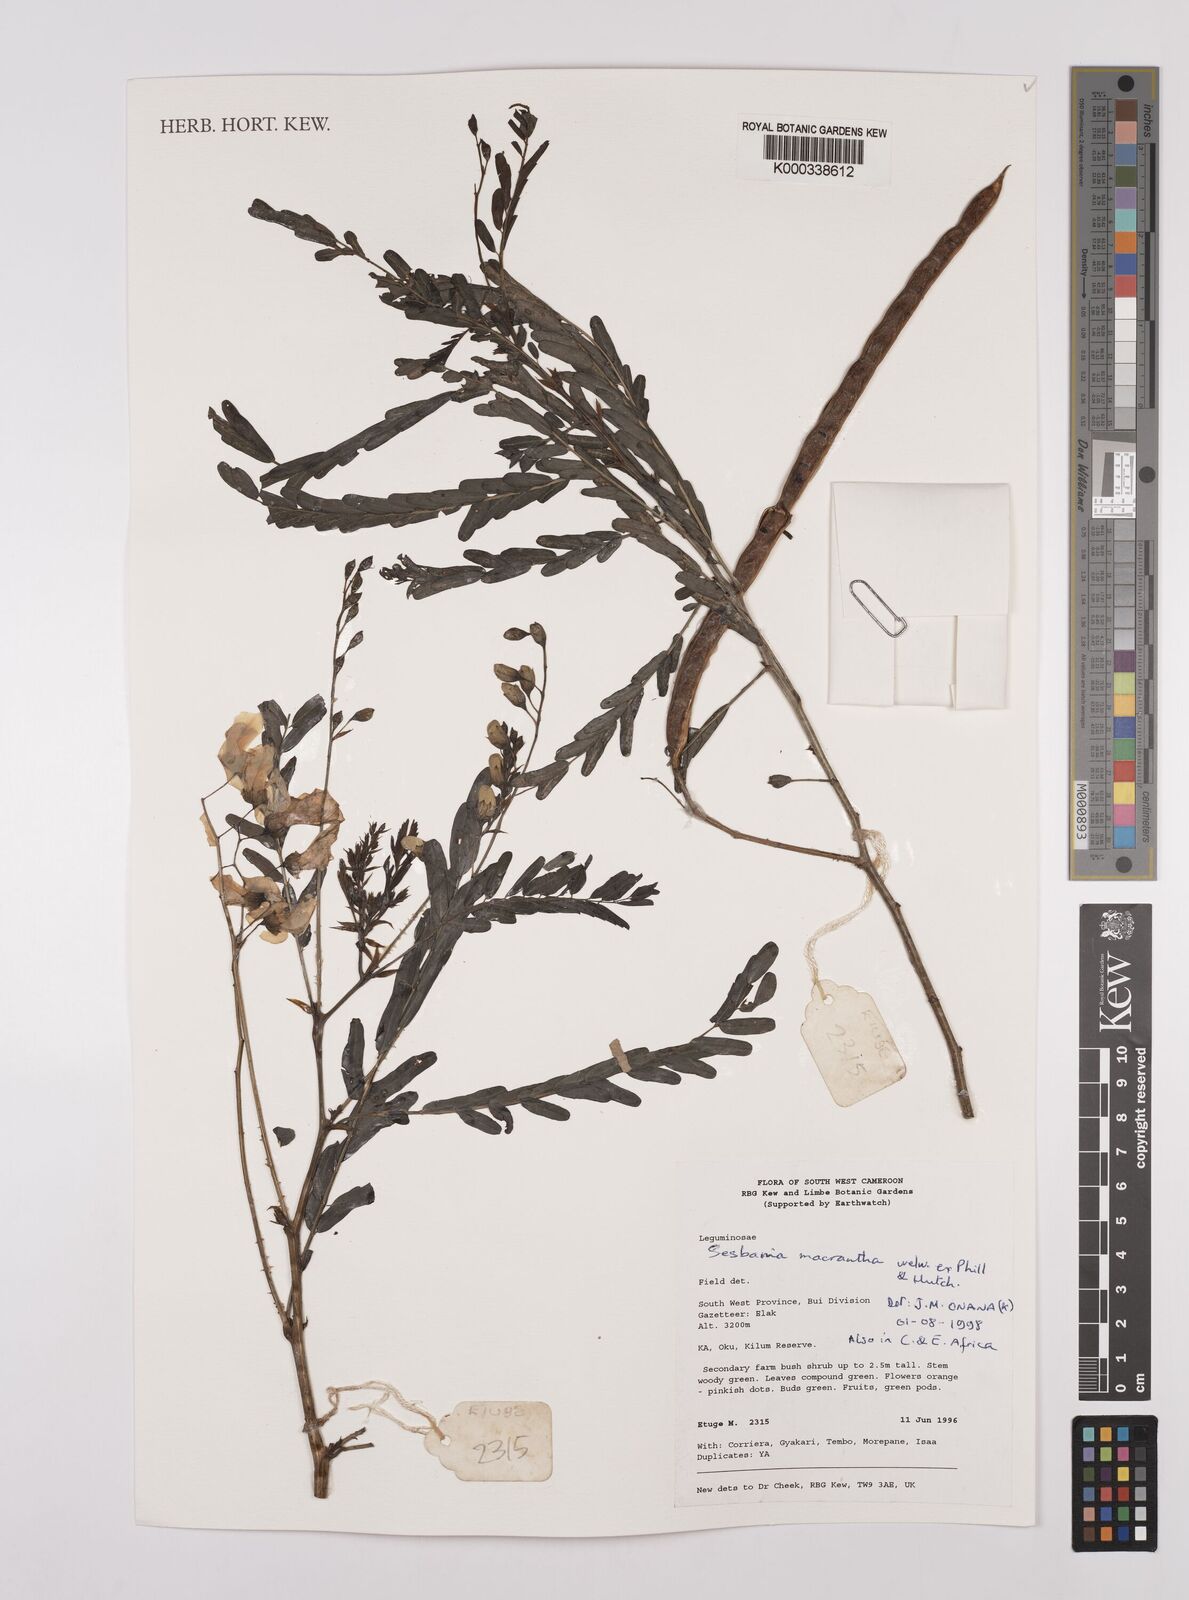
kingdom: Plantae
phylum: Tracheophyta
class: Magnoliopsida
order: Fabales
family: Fabaceae
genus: Sesbania
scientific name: Sesbania macrantha
